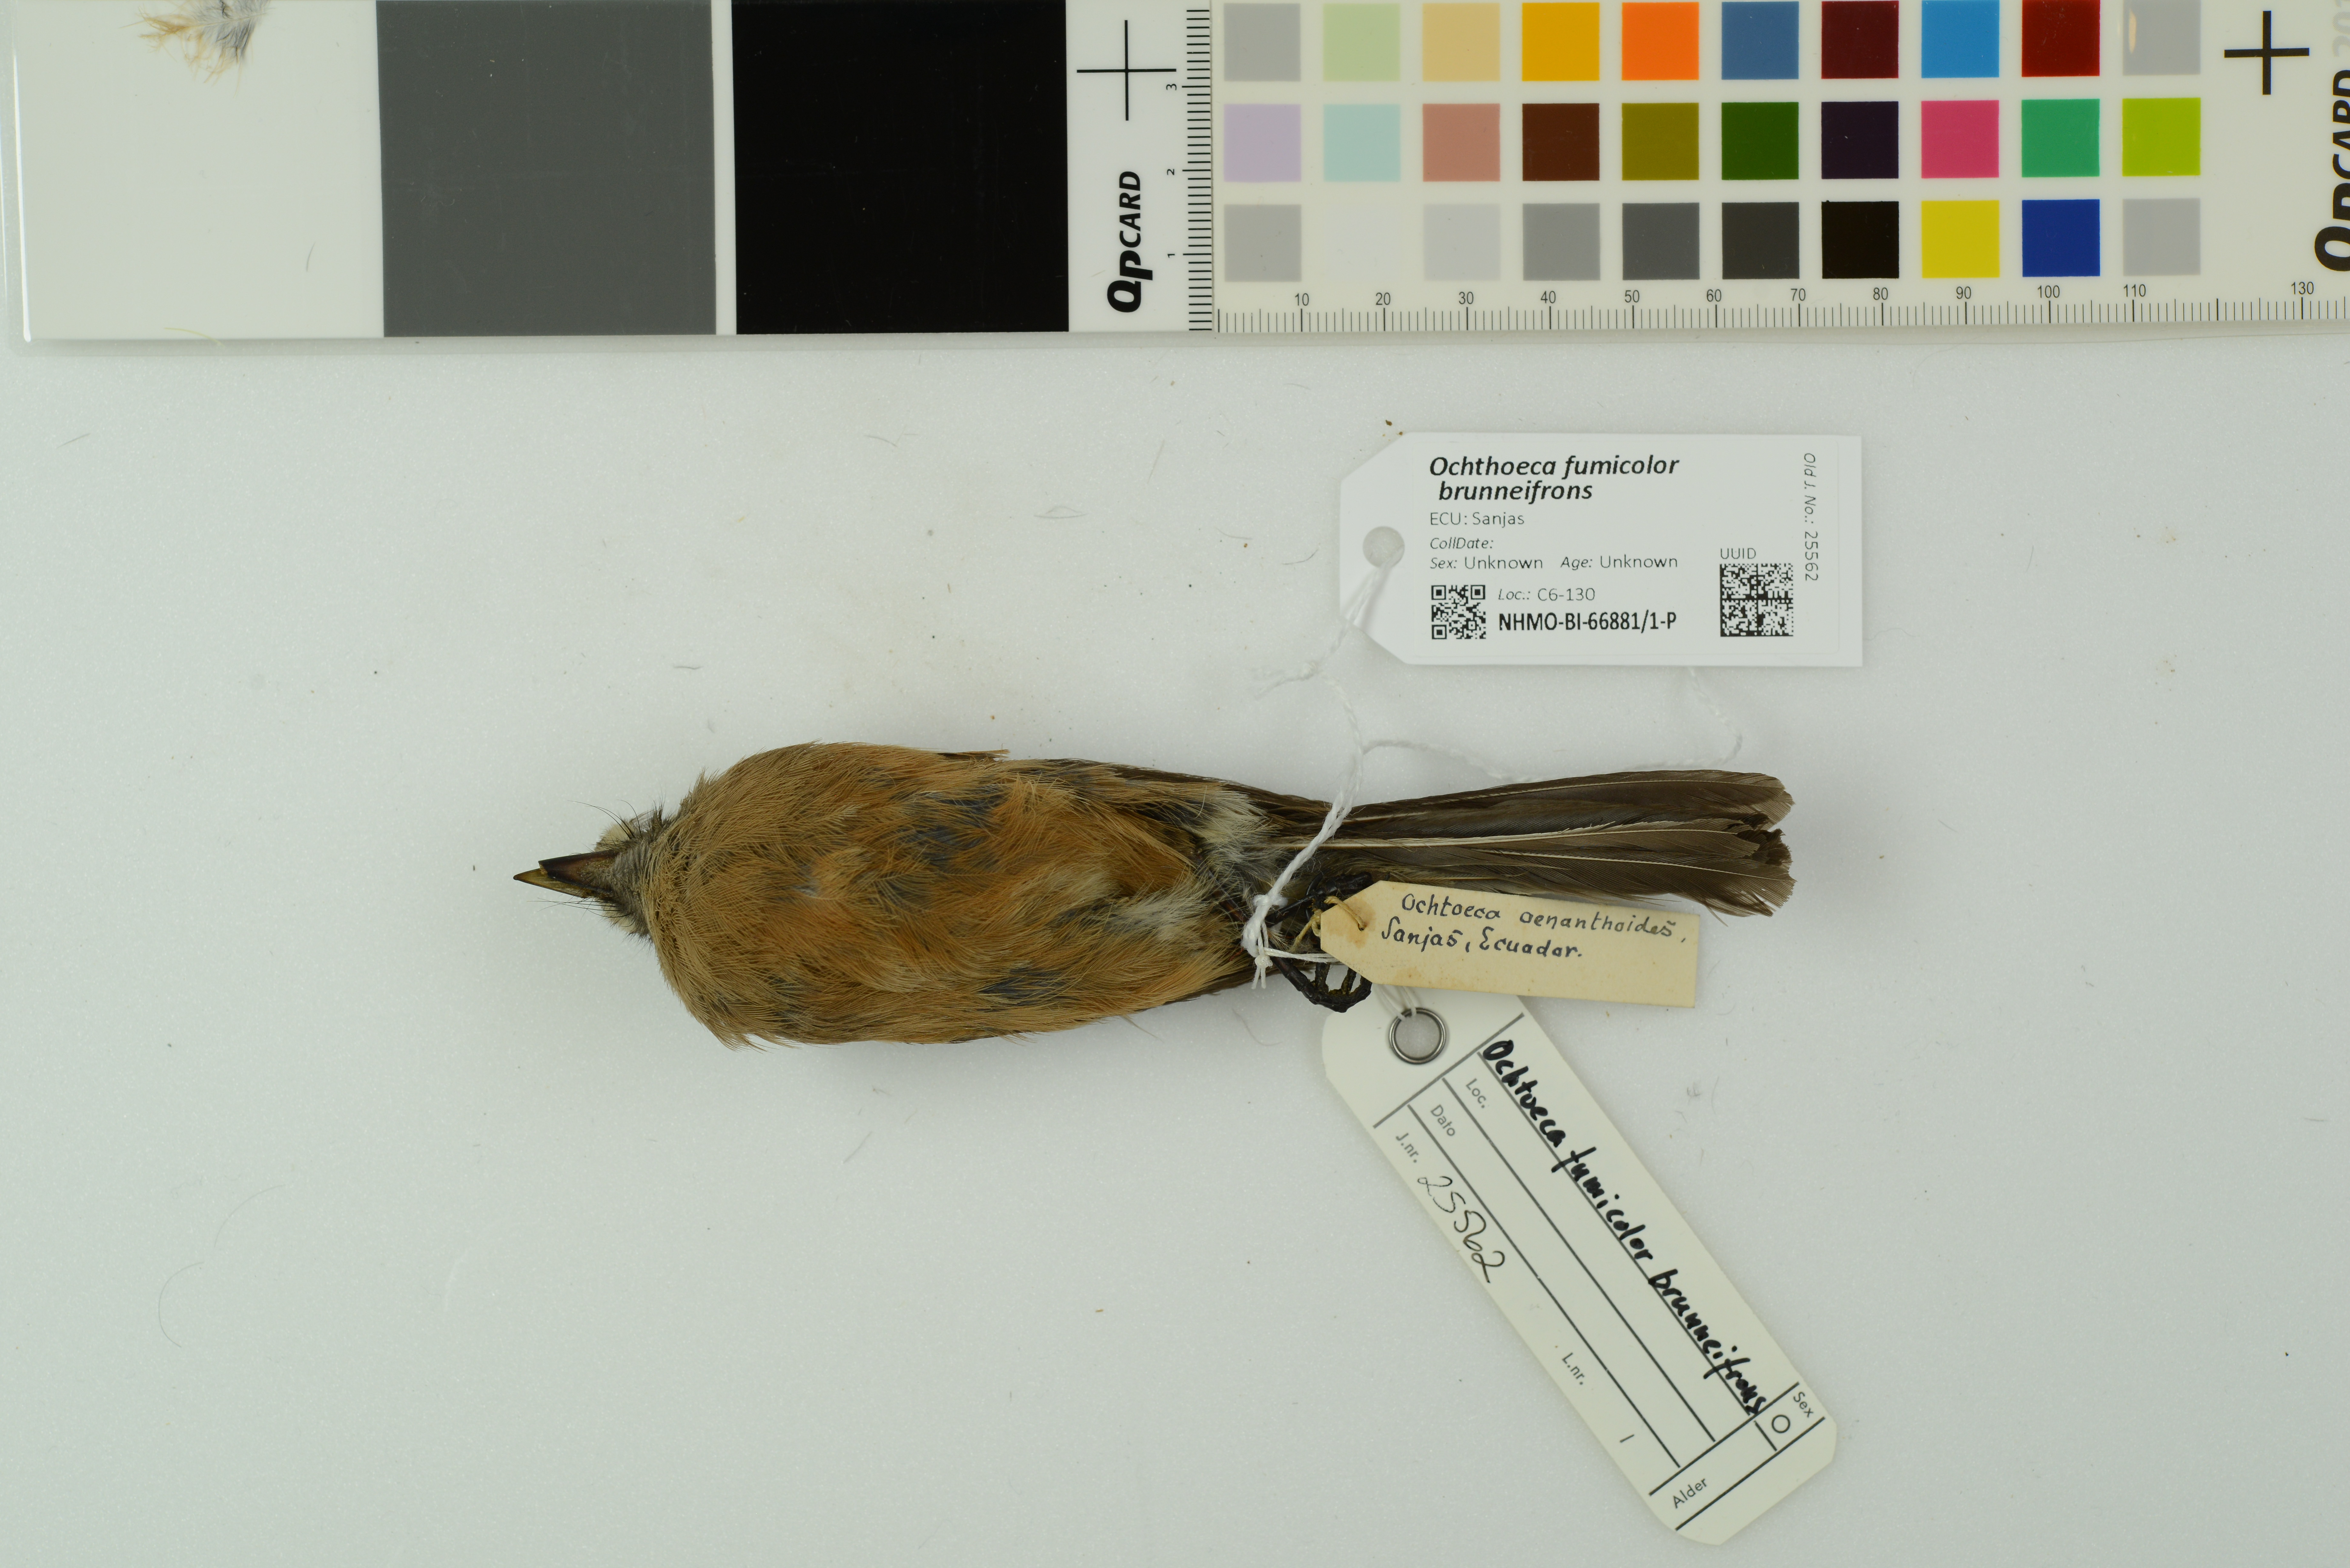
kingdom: Animalia
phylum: Chordata
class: Aves
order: Passeriformes
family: Tyrannidae
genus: Ochthoeca
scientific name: Ochthoeca fumicolor
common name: Brown-backed chat-tyrant
